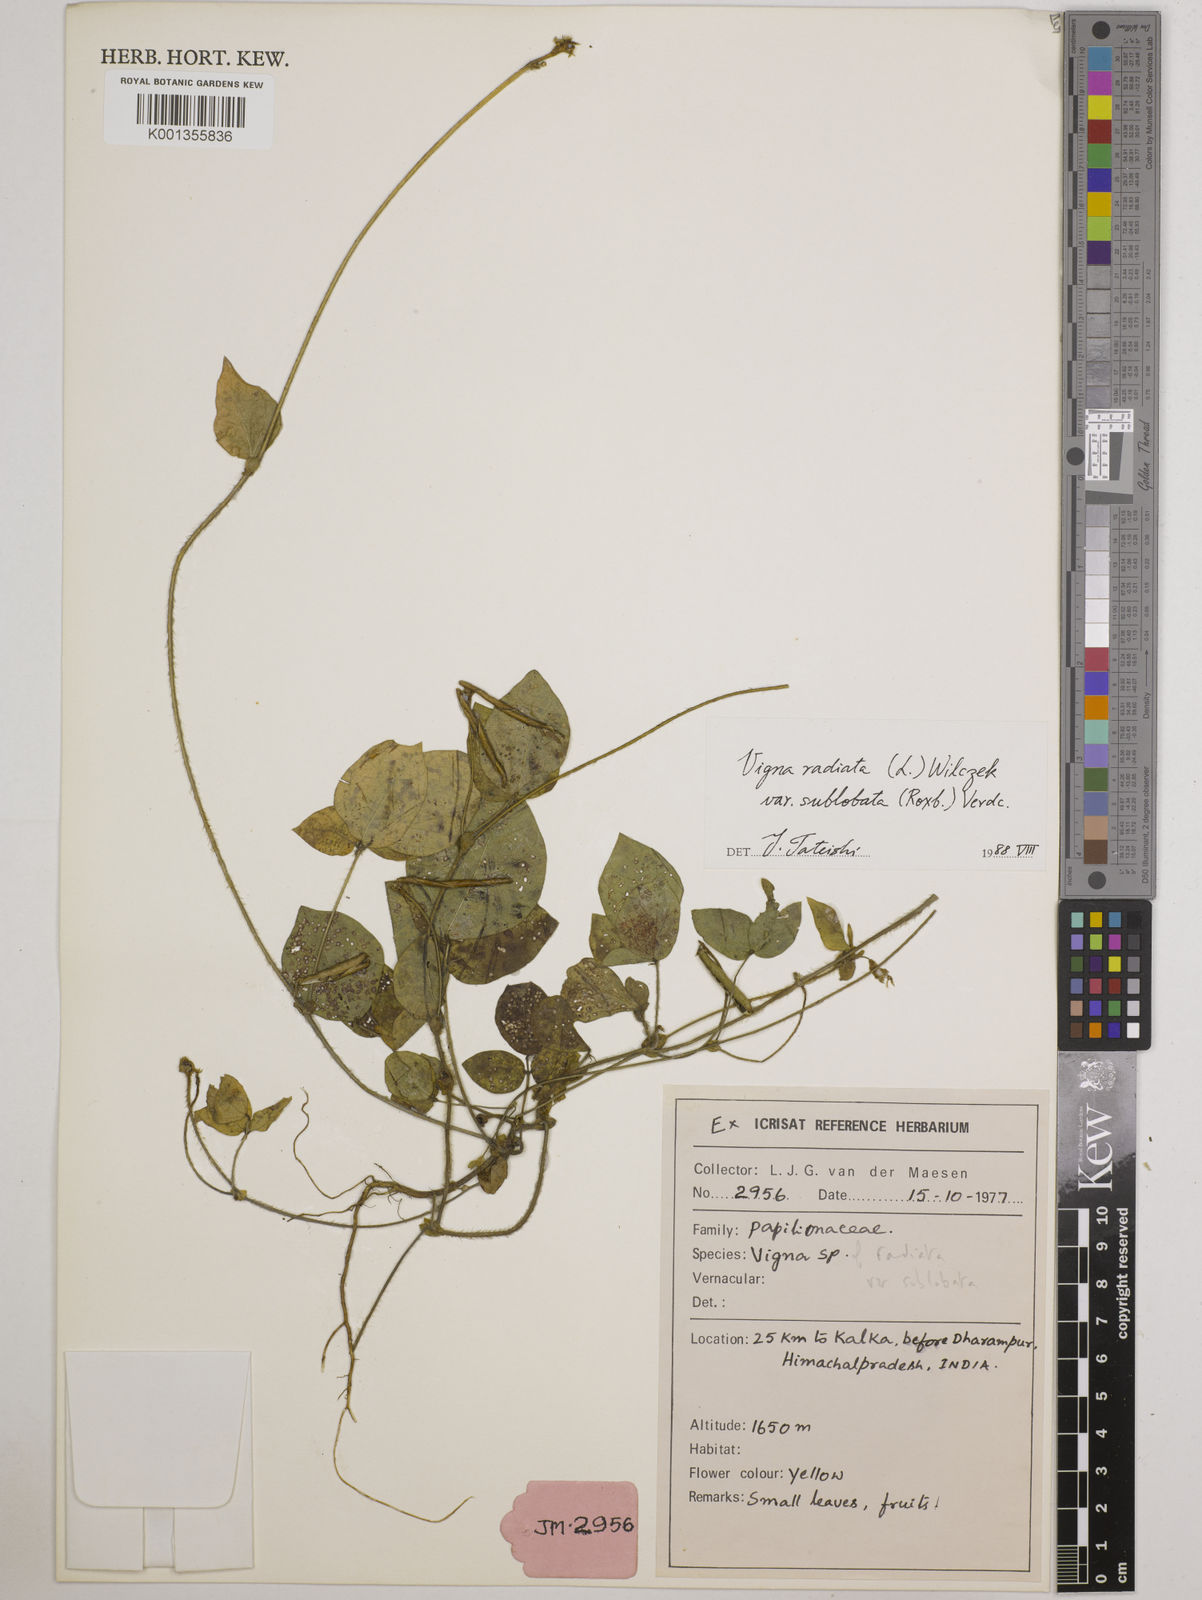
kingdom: Plantae
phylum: Tracheophyta
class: Magnoliopsida
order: Fabales
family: Fabaceae
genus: Vigna
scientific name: Vigna radiata
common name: Mung-bean
